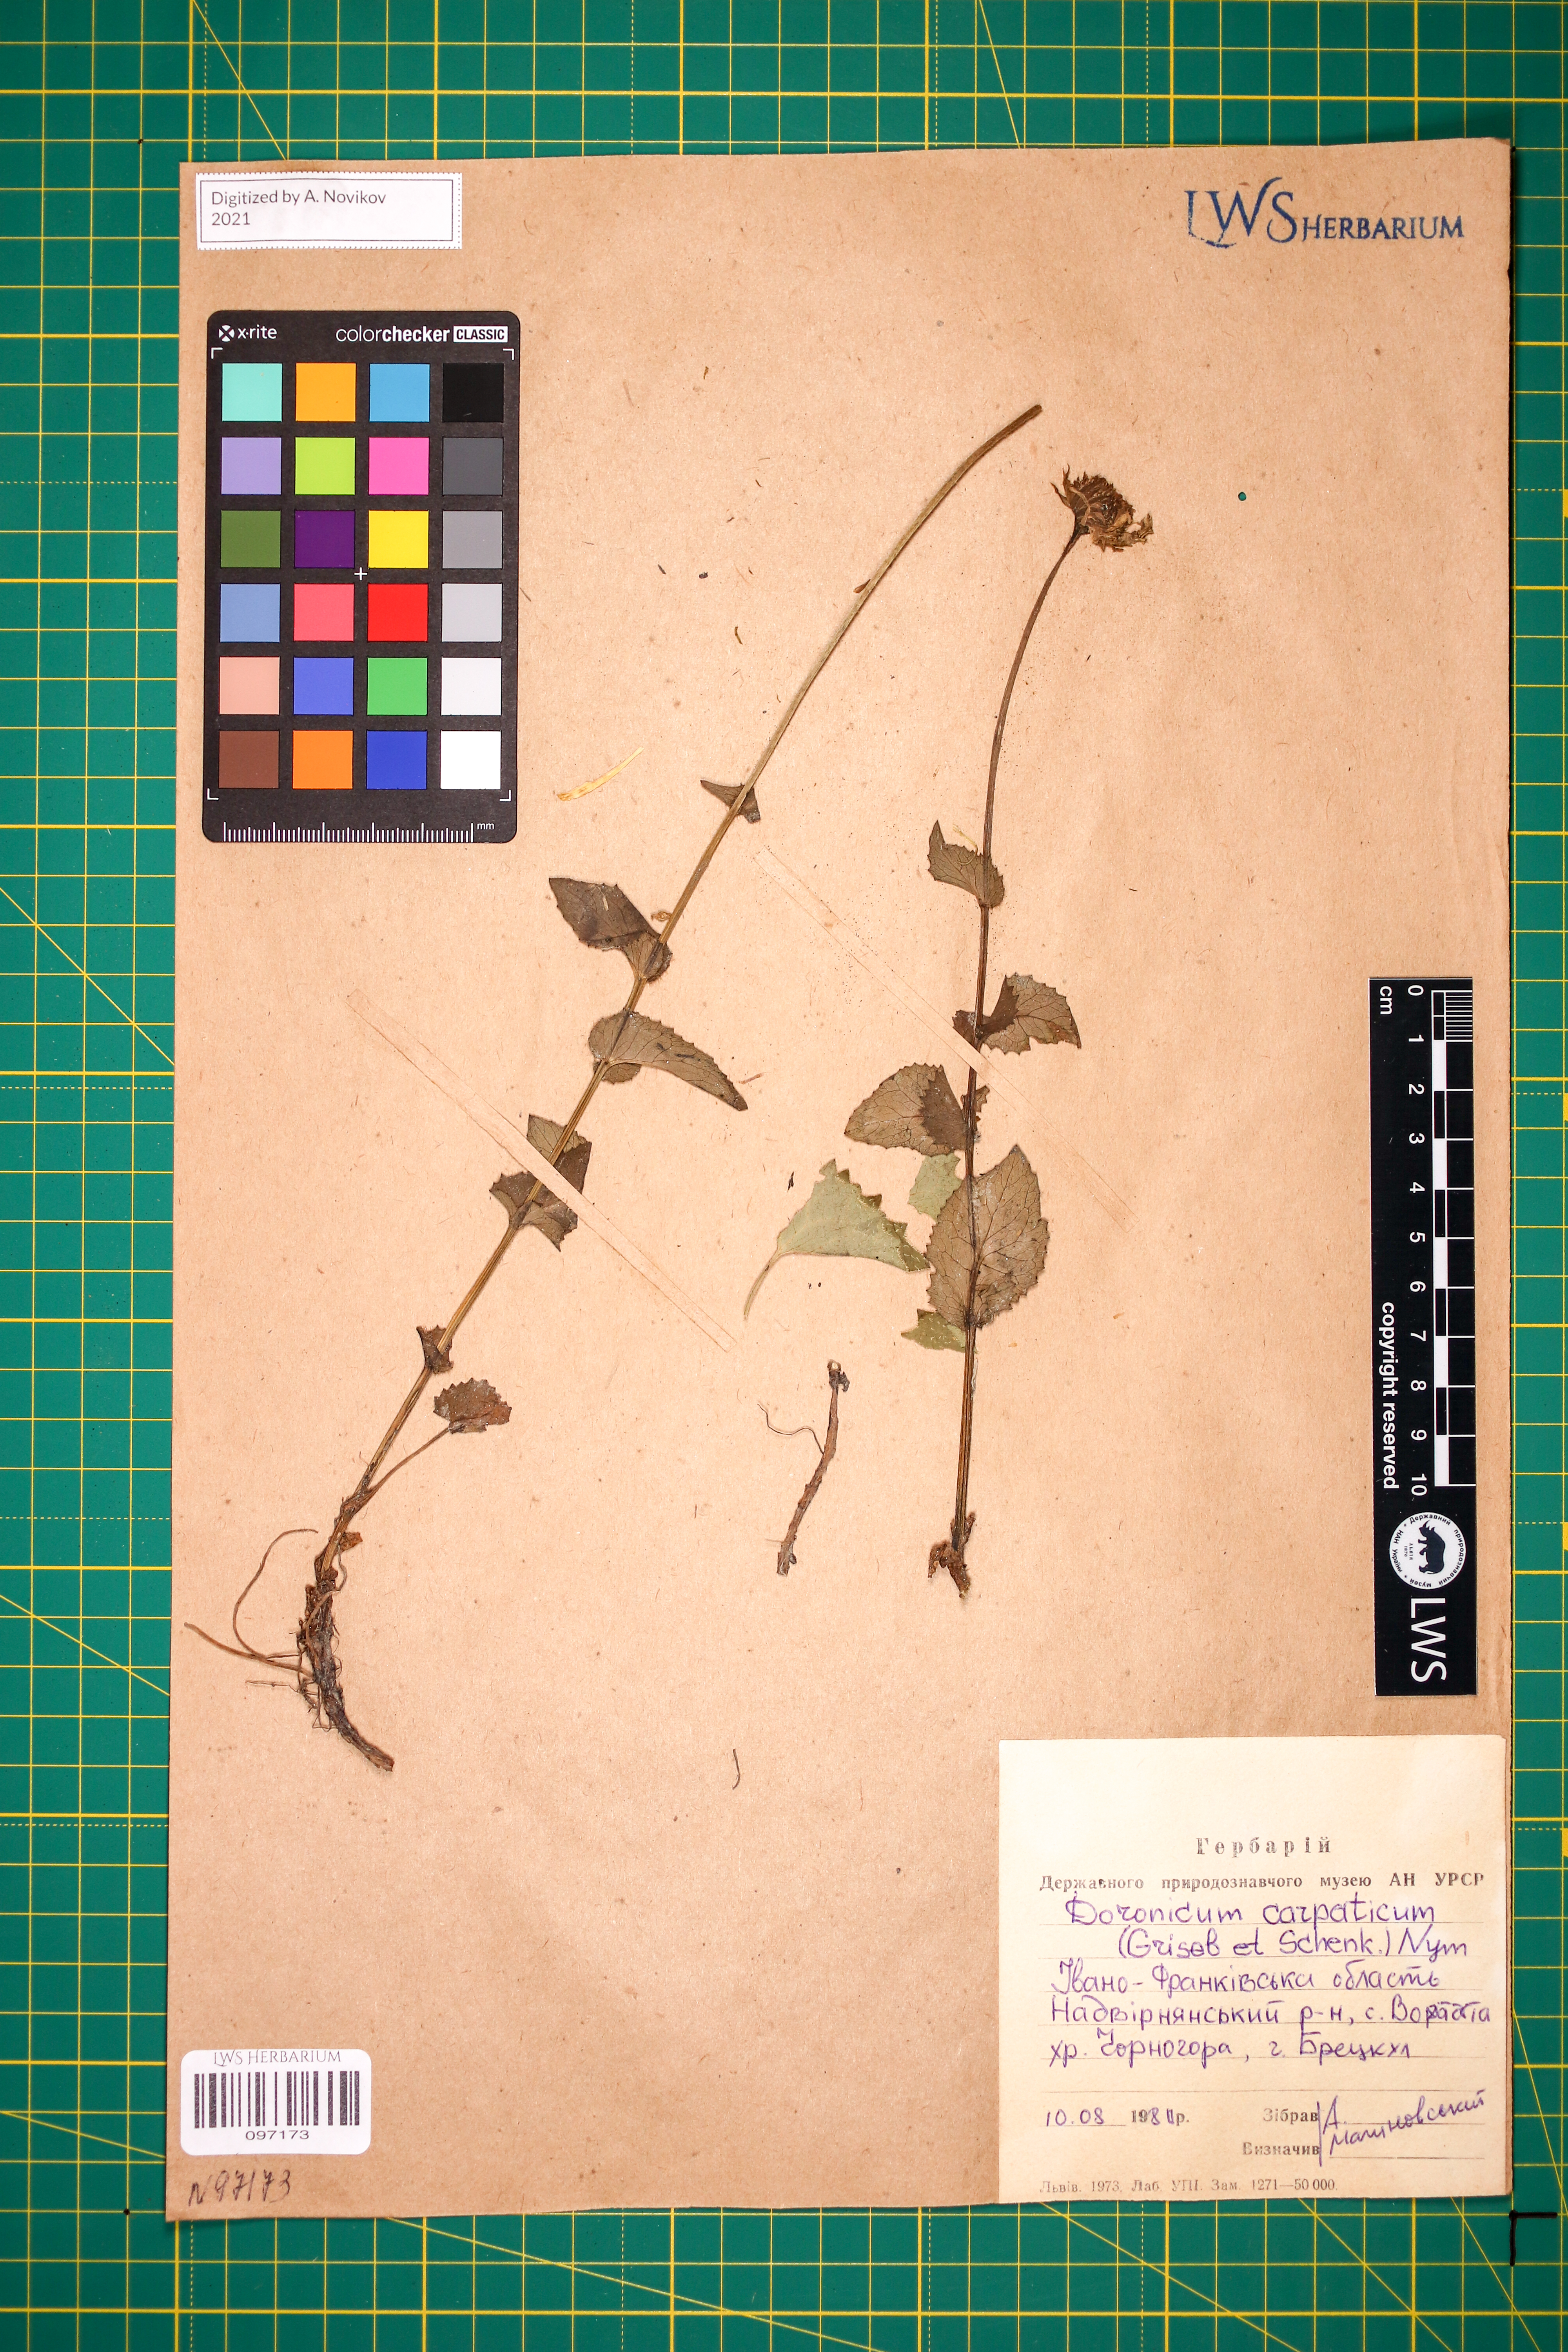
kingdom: Plantae
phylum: Tracheophyta
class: Magnoliopsida
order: Asterales
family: Asteraceae
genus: Doronicum
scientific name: Doronicum carpaticum
